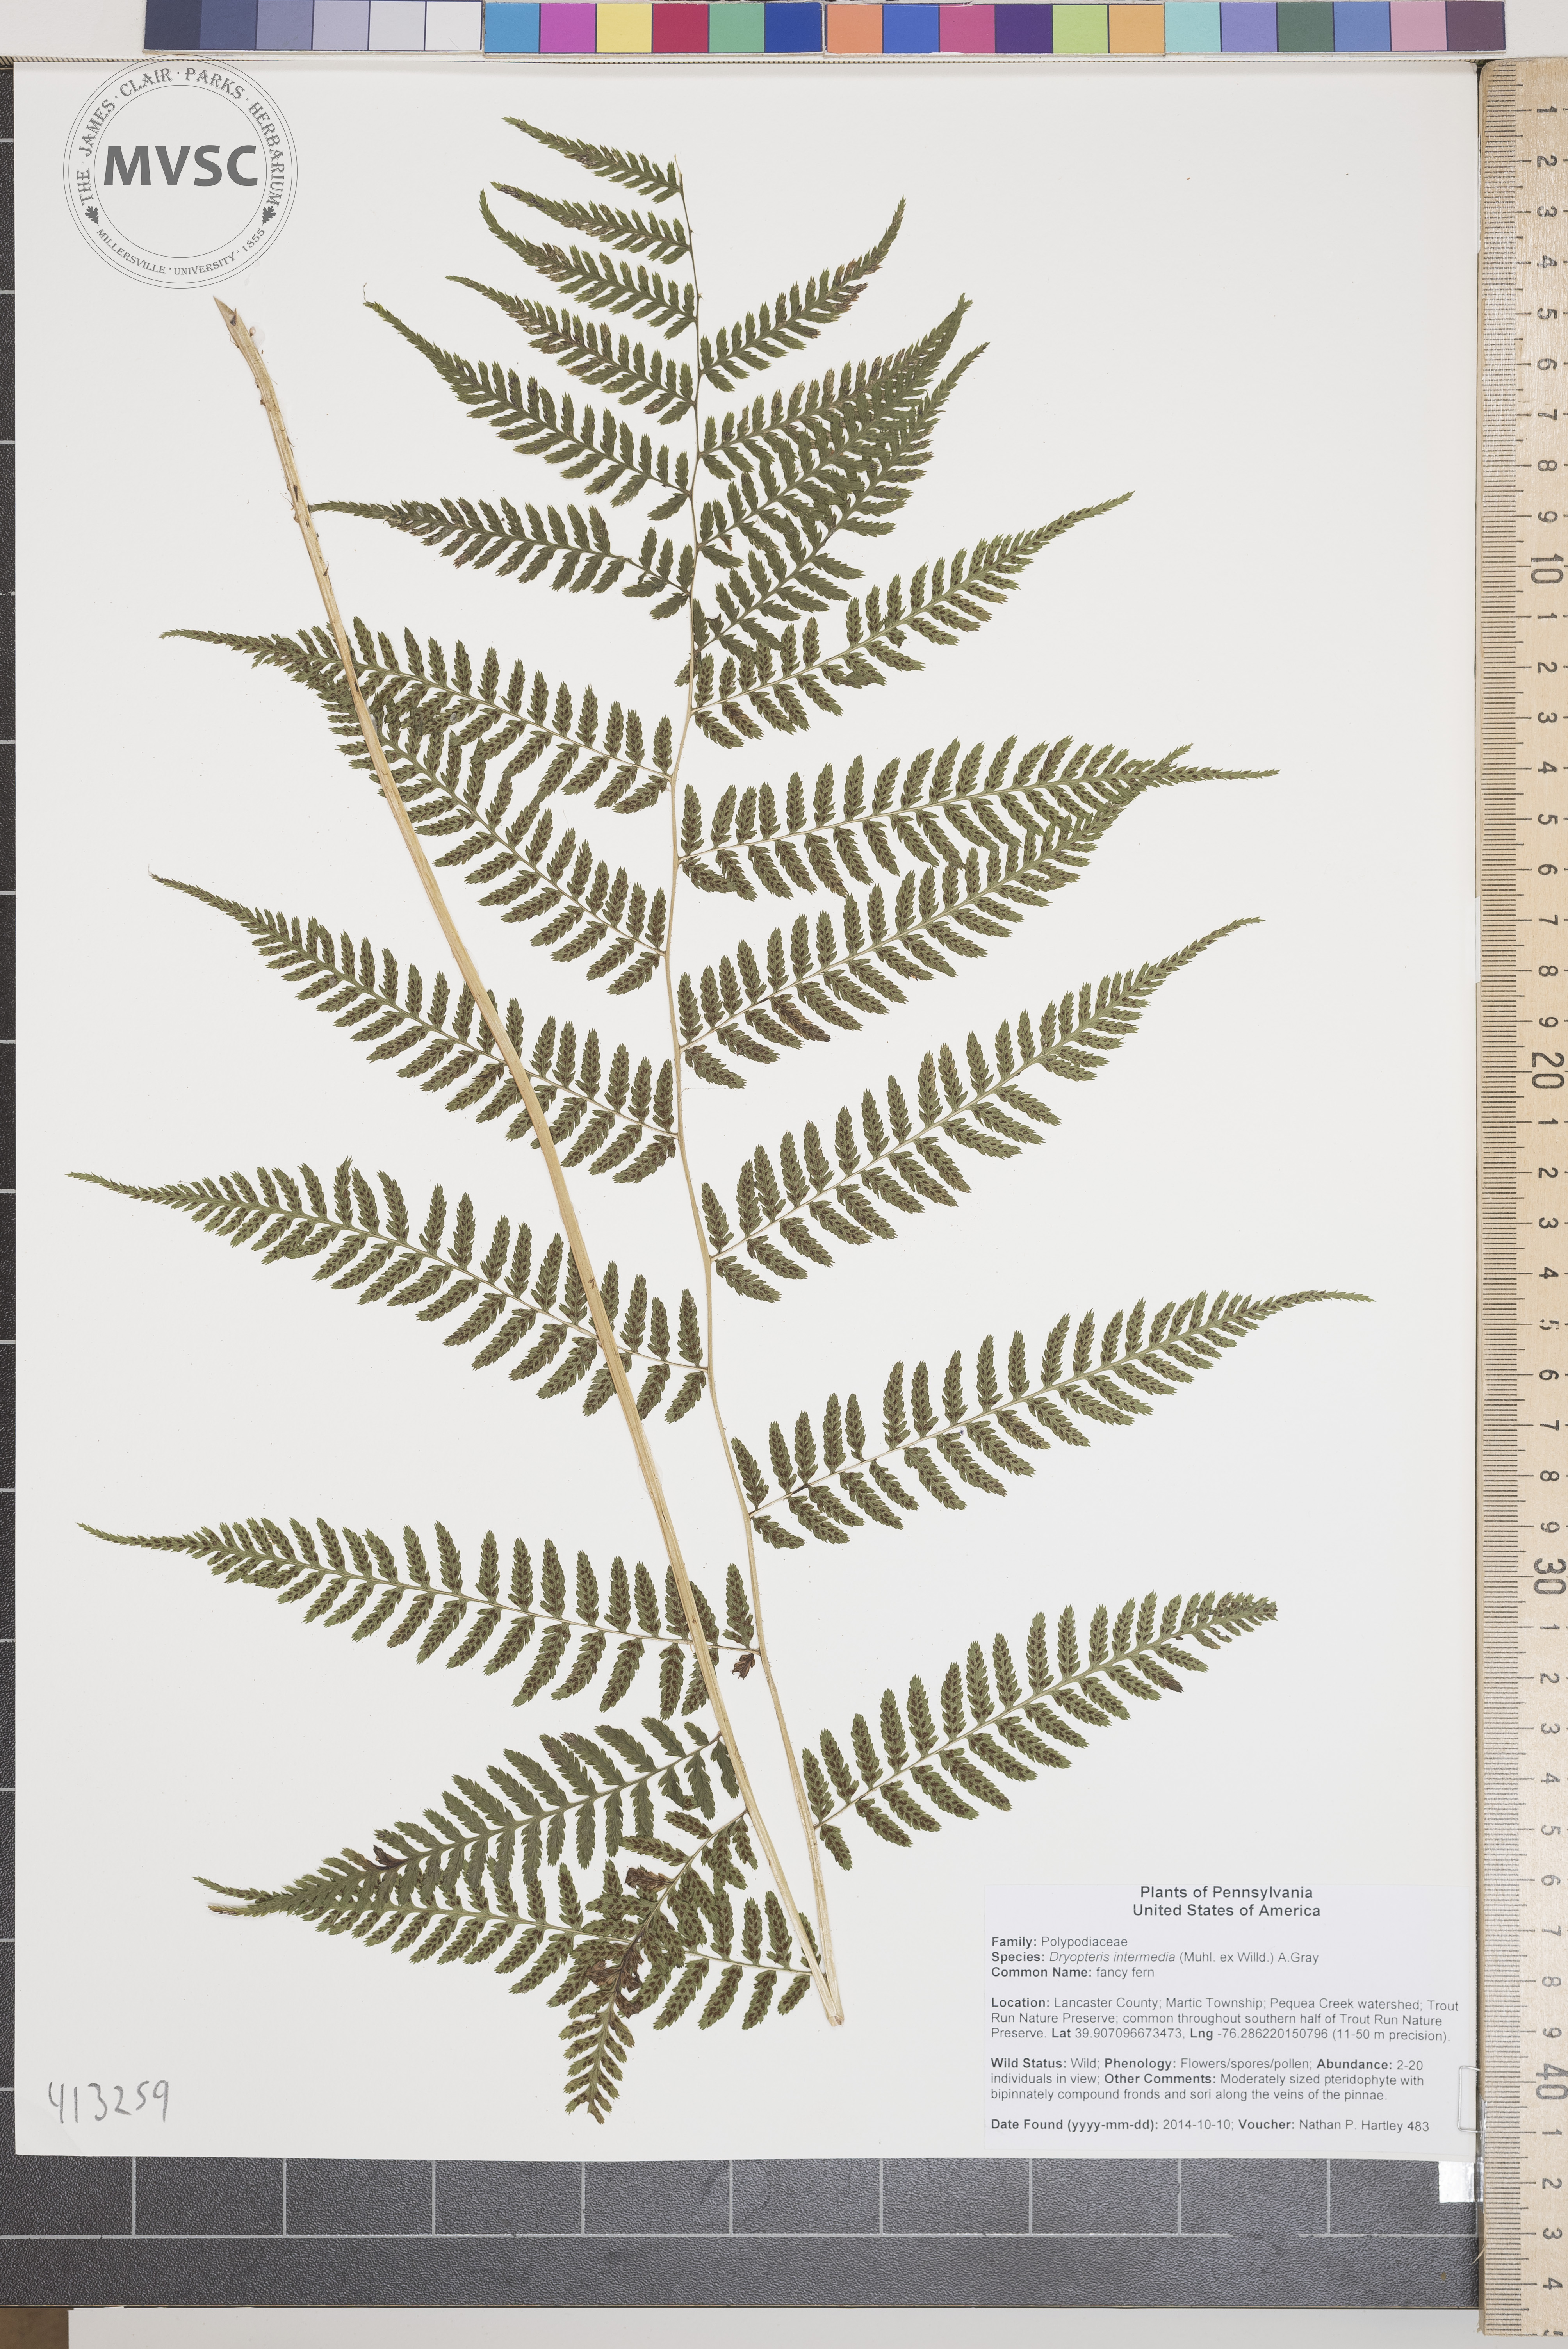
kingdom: Plantae
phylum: Tracheophyta
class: Polypodiopsida
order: Polypodiales
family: Athyriaceae
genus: Athyrium
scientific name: Athyrium filix-femina
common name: Lady Fern
